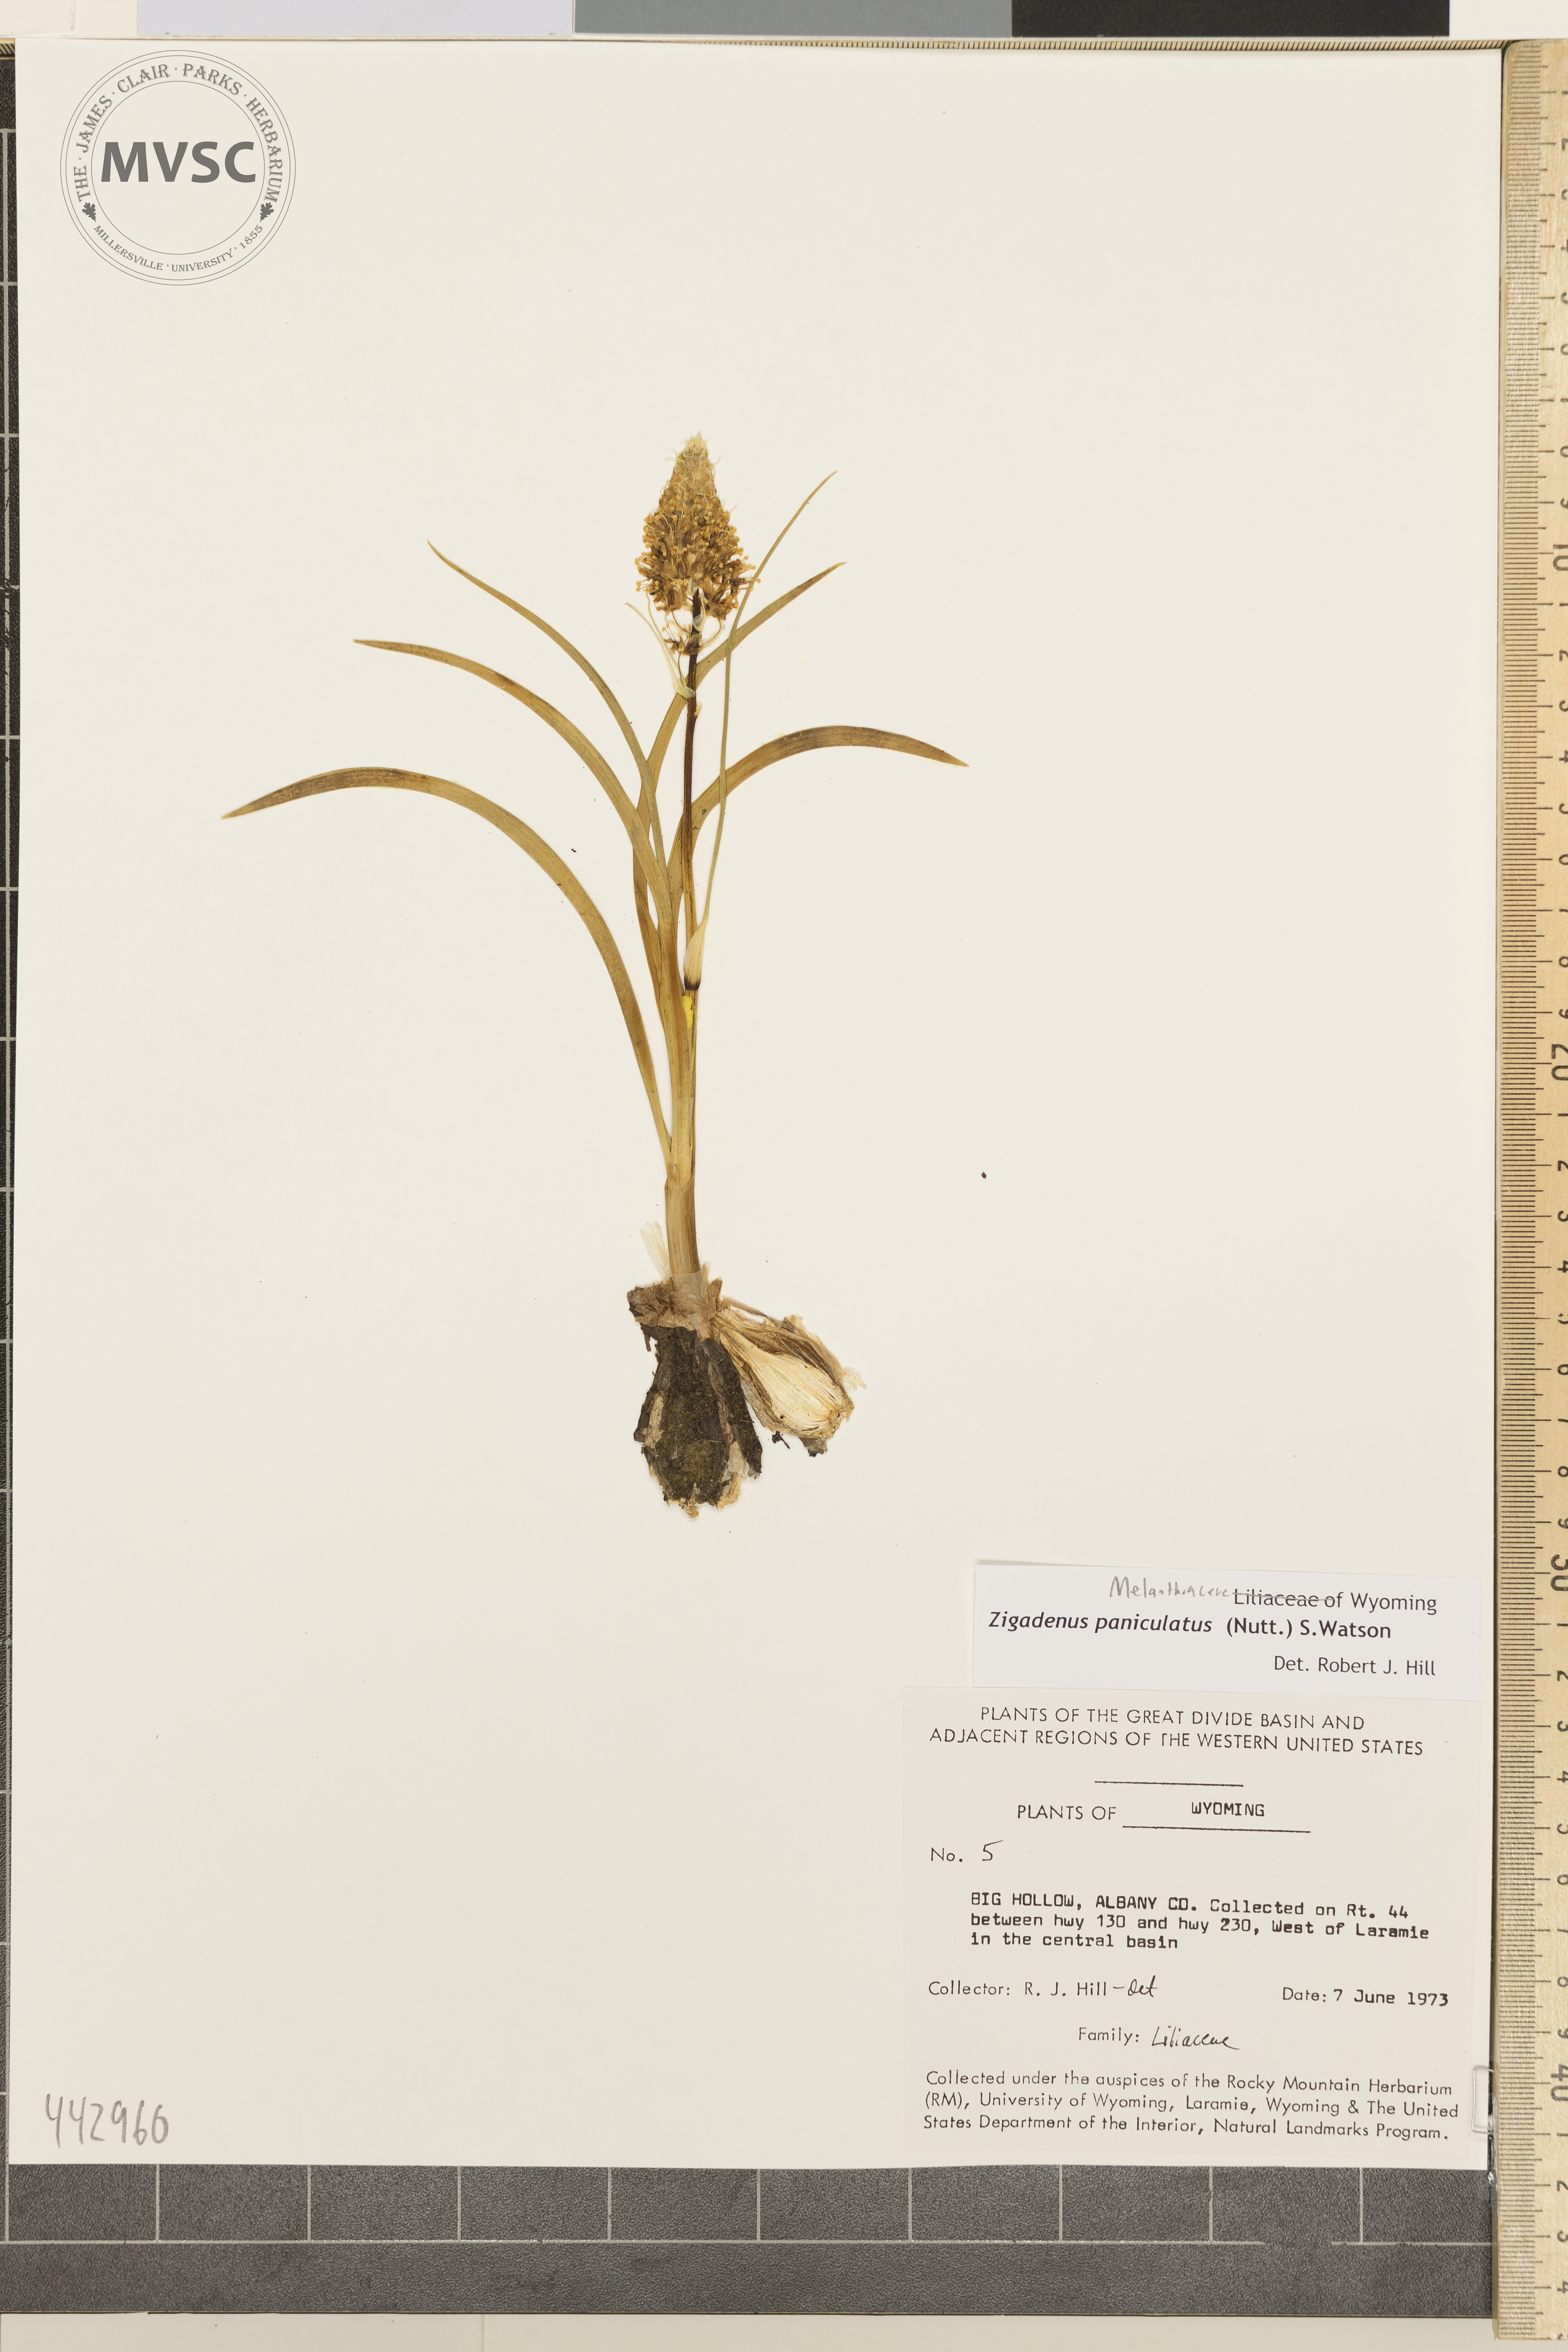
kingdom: Plantae
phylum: Tracheophyta
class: Liliopsida
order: Liliales
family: Melanthiaceae
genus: Toxicoscordion
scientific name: Toxicoscordion paniculatum
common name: Foothill death camas
